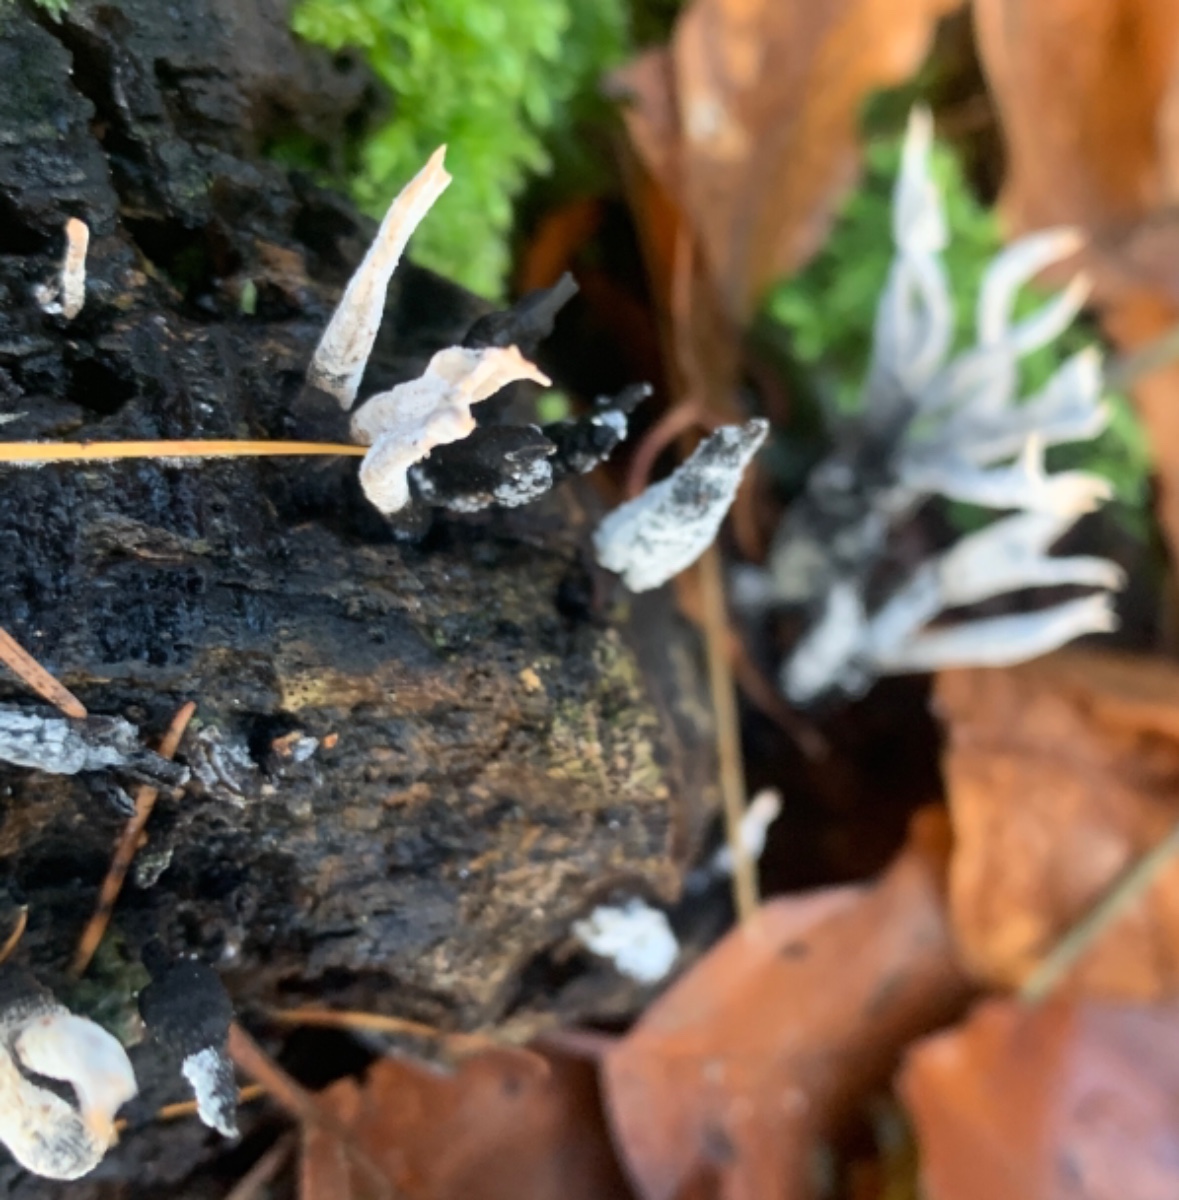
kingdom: Fungi
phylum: Ascomycota
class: Sordariomycetes
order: Xylariales
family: Xylariaceae
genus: Xylaria
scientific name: Xylaria hypoxylon
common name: grenet stødsvamp
